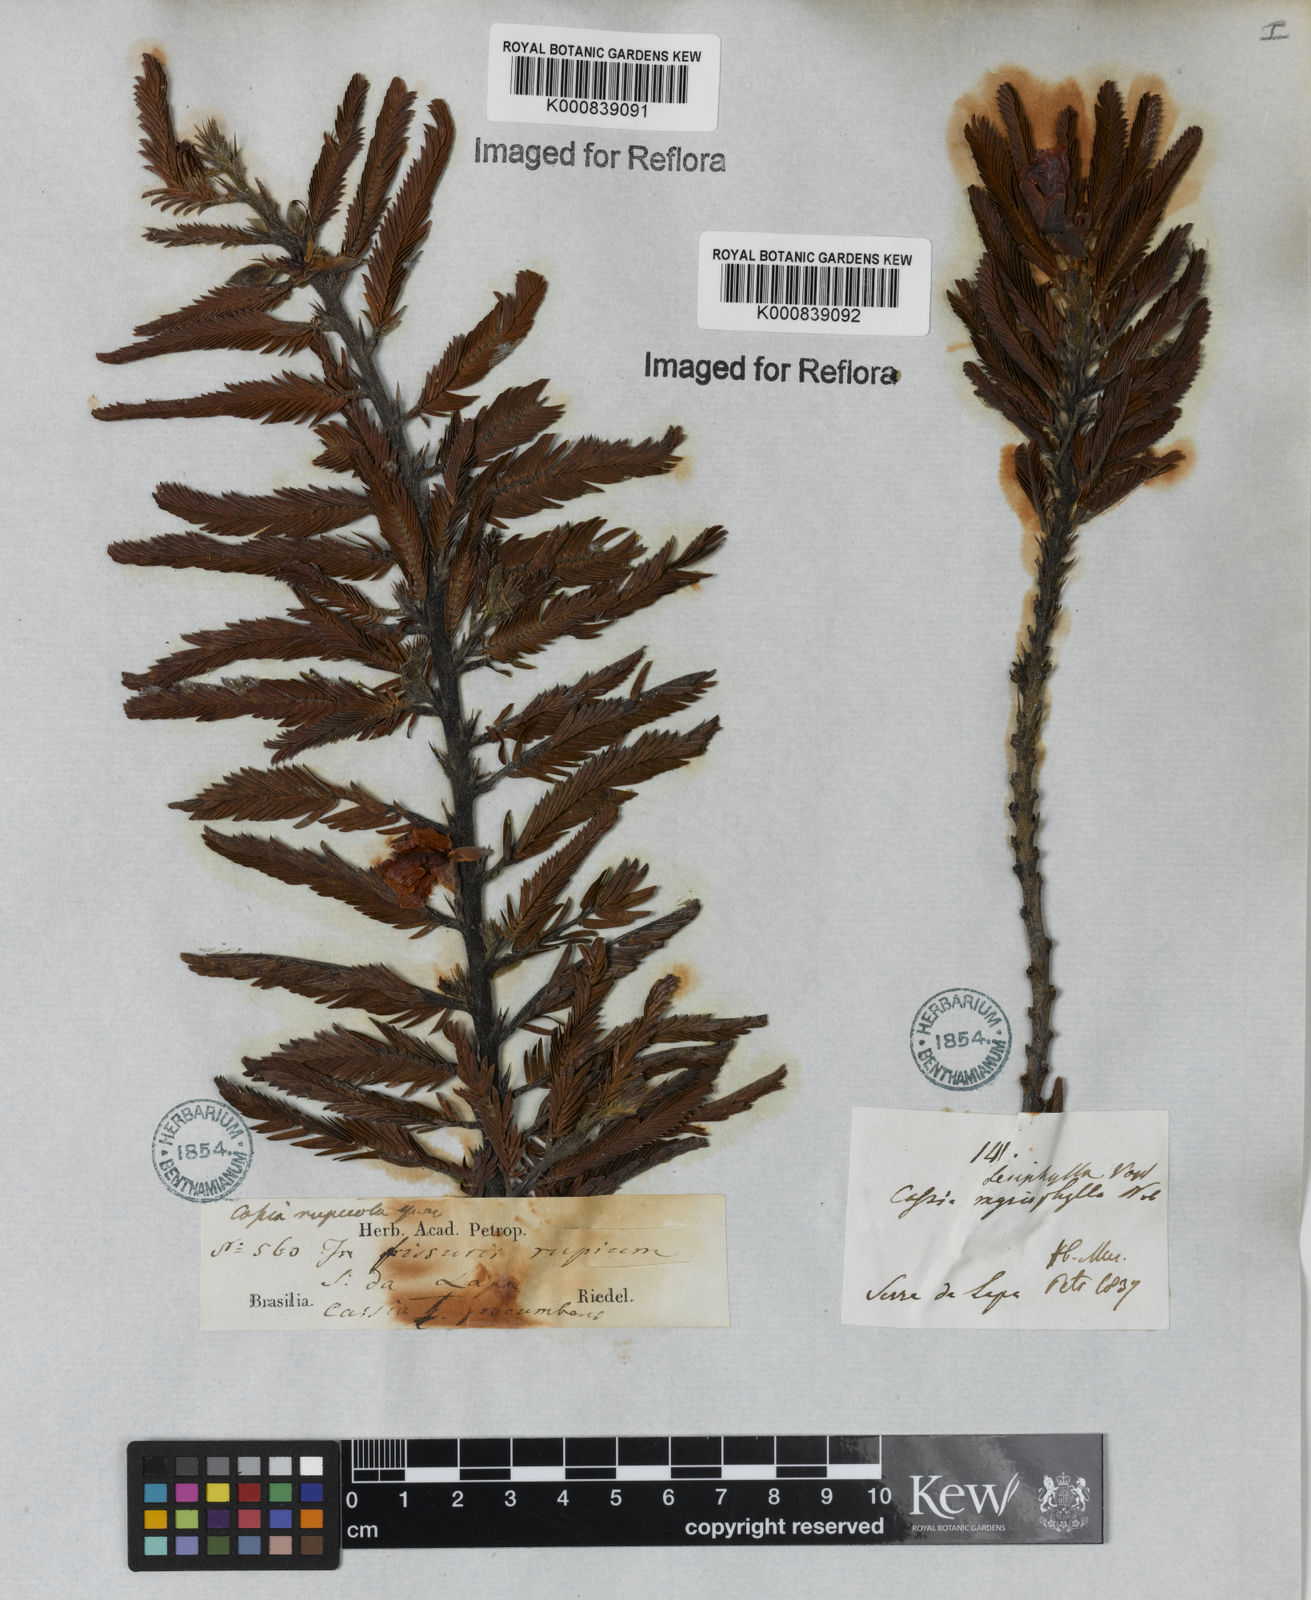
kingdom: Plantae
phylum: Tracheophyta
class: Magnoliopsida
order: Fabales
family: Fabaceae
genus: Chamaecrista
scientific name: Chamaecrista
